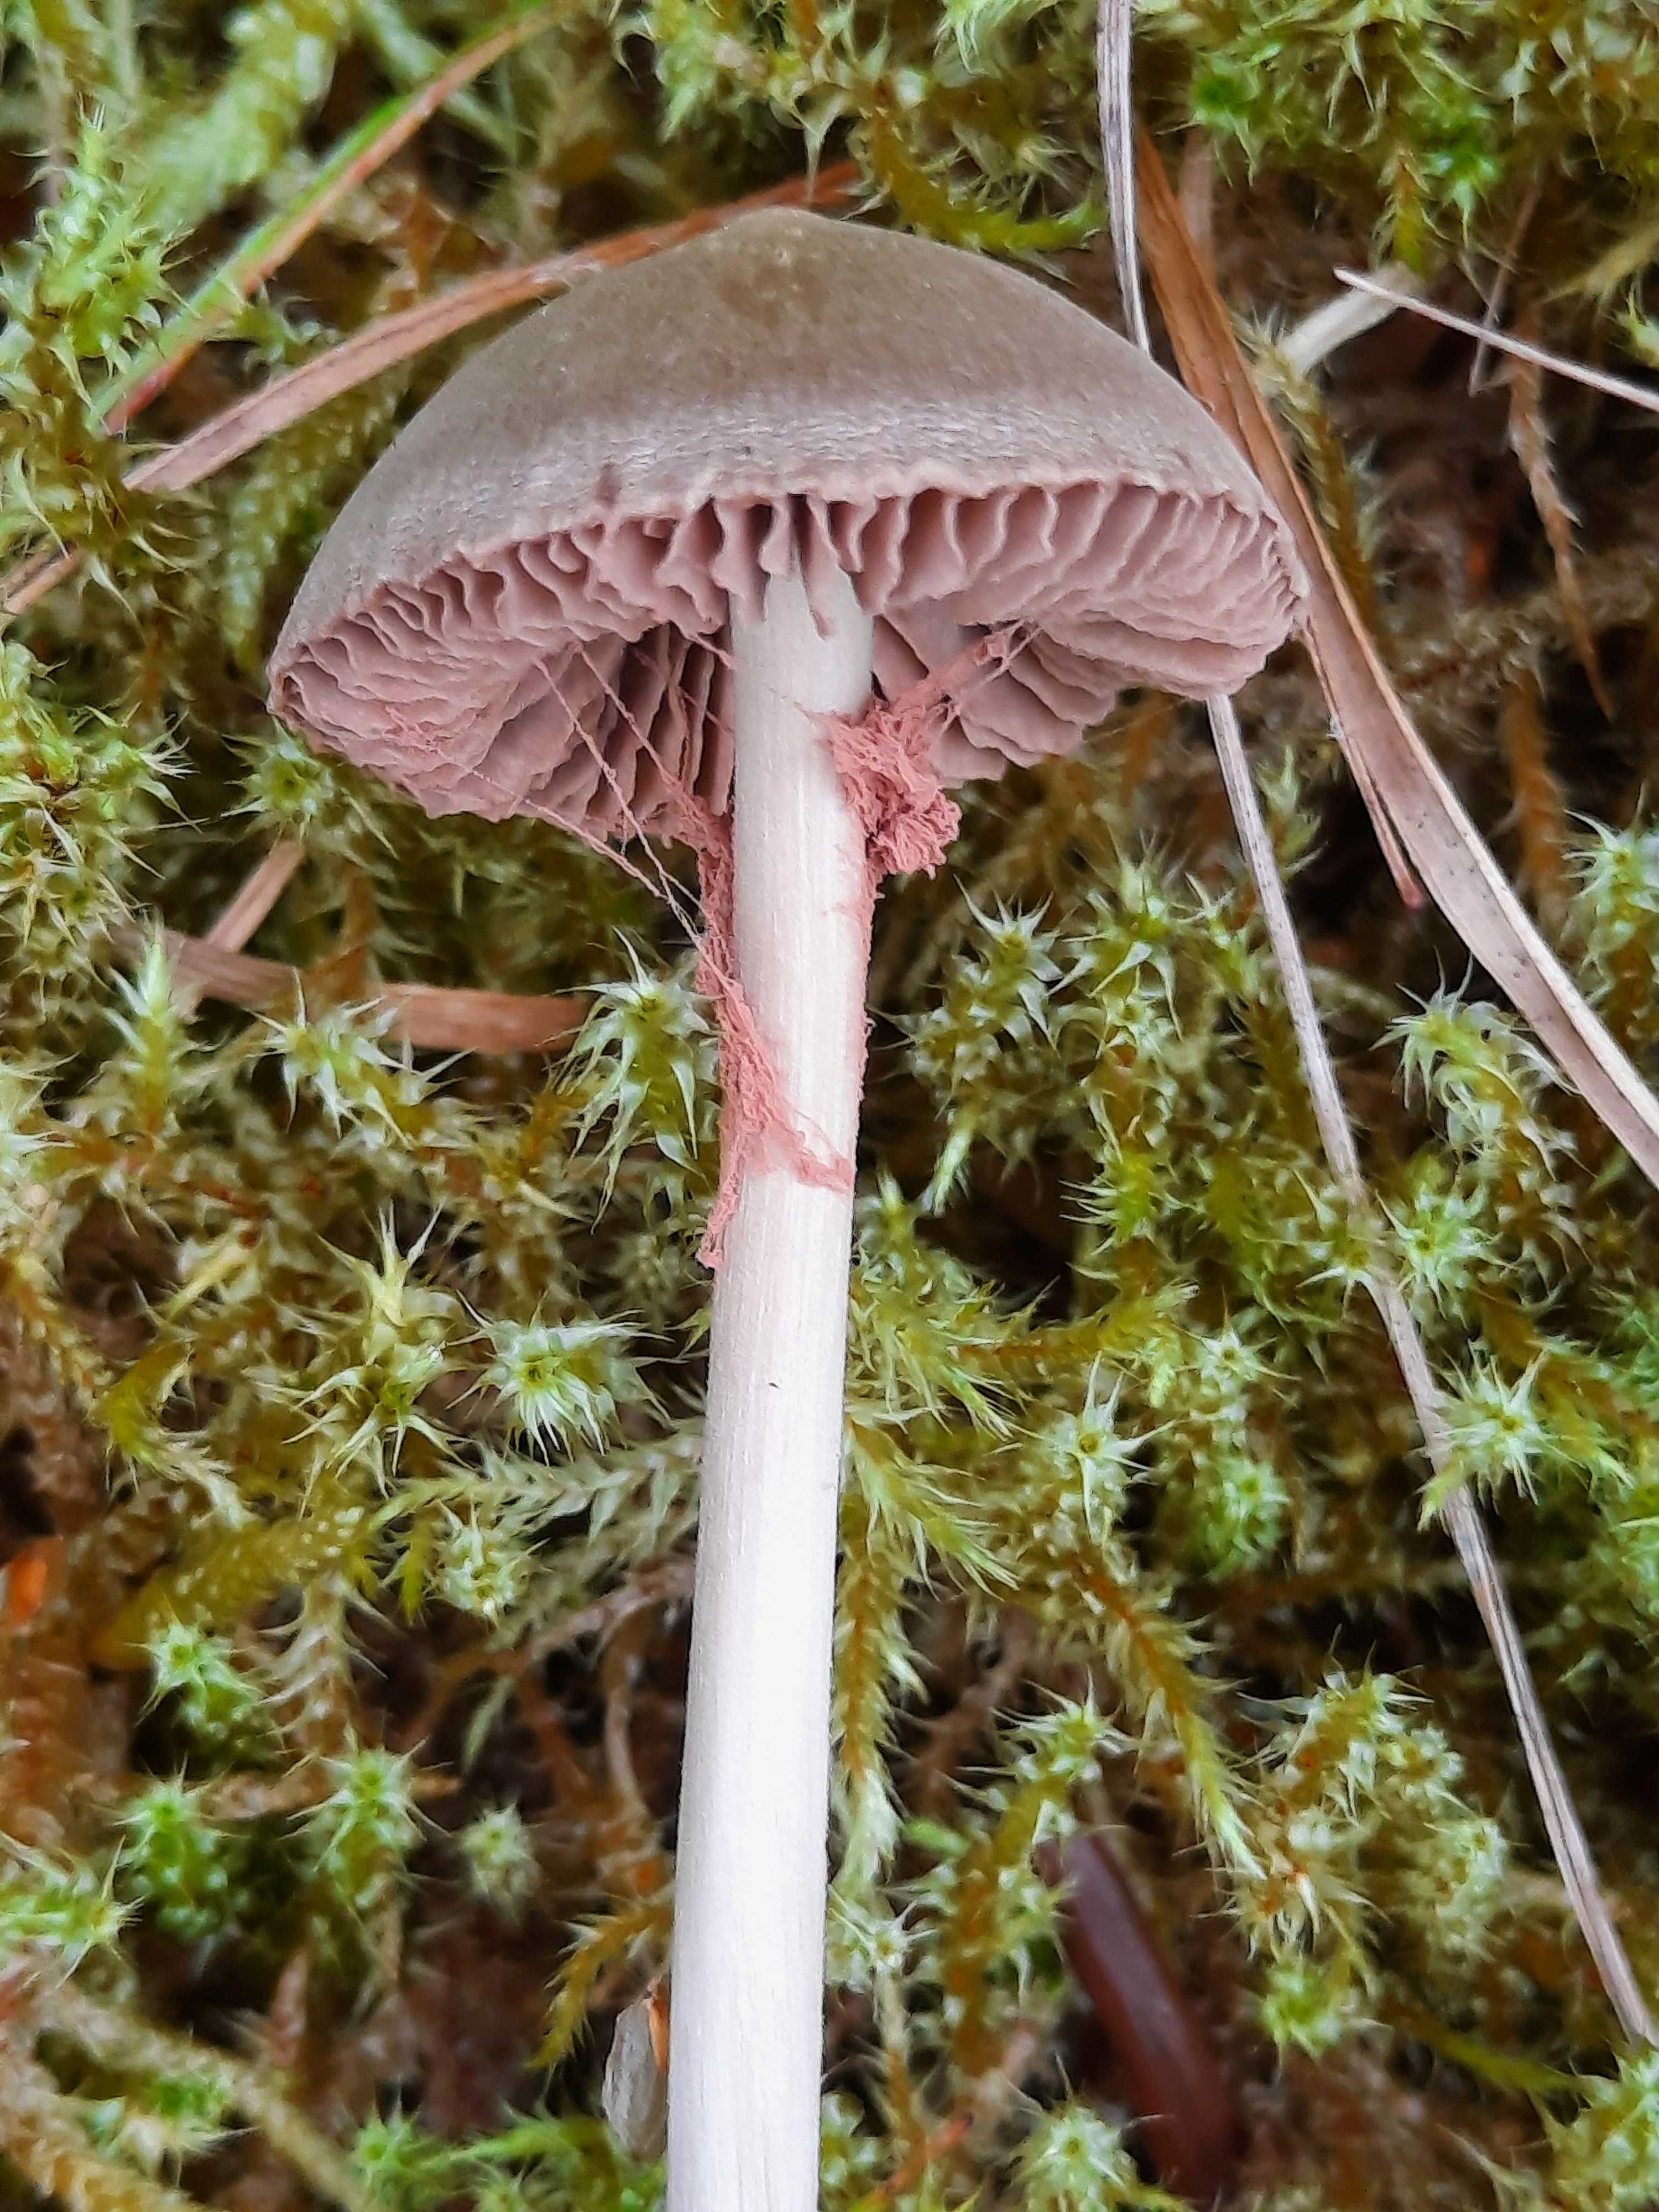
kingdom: Fungi
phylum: Basidiomycota
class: Agaricomycetes
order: Agaricales
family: Entolomataceae
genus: Entoloma
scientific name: Entoloma
